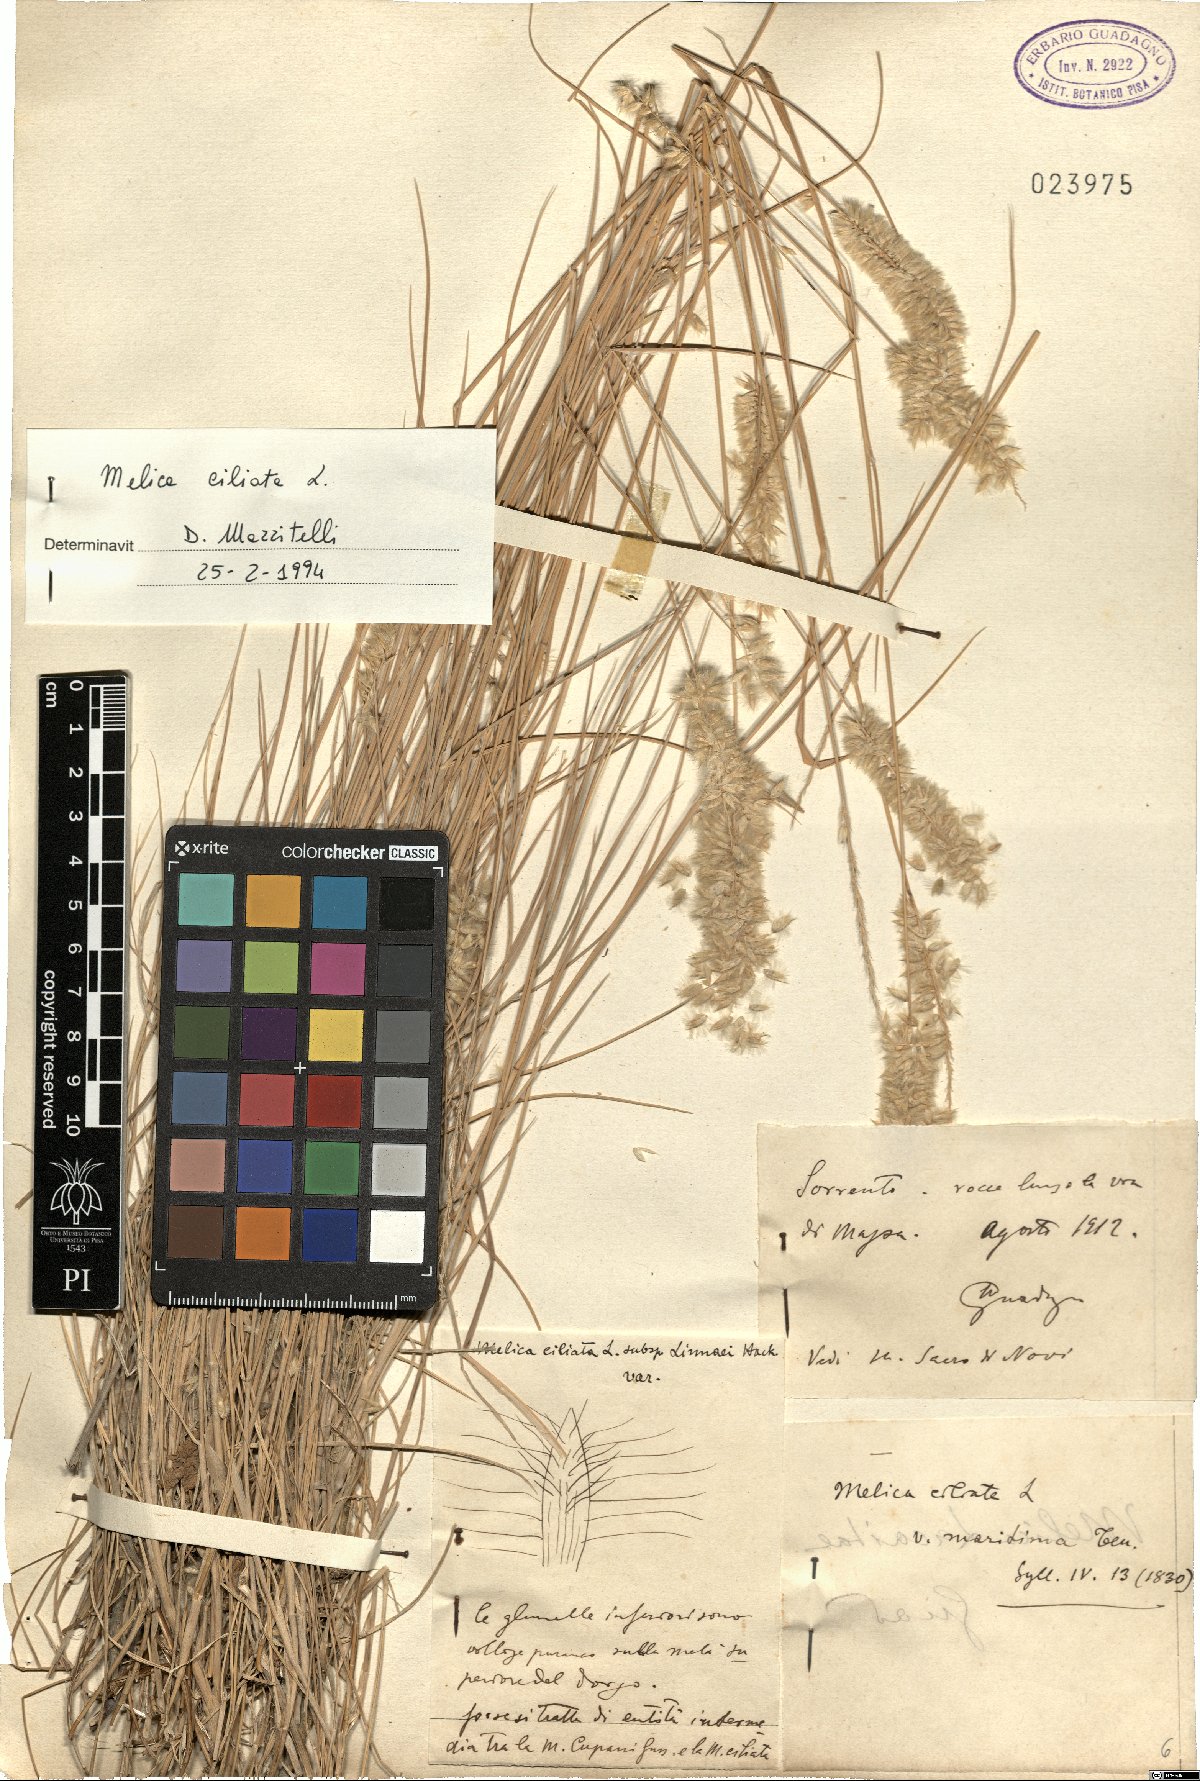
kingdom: Plantae
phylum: Tracheophyta
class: Liliopsida
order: Poales
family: Poaceae
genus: Melica
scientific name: Melica ciliata
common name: Hairy melicgrass
